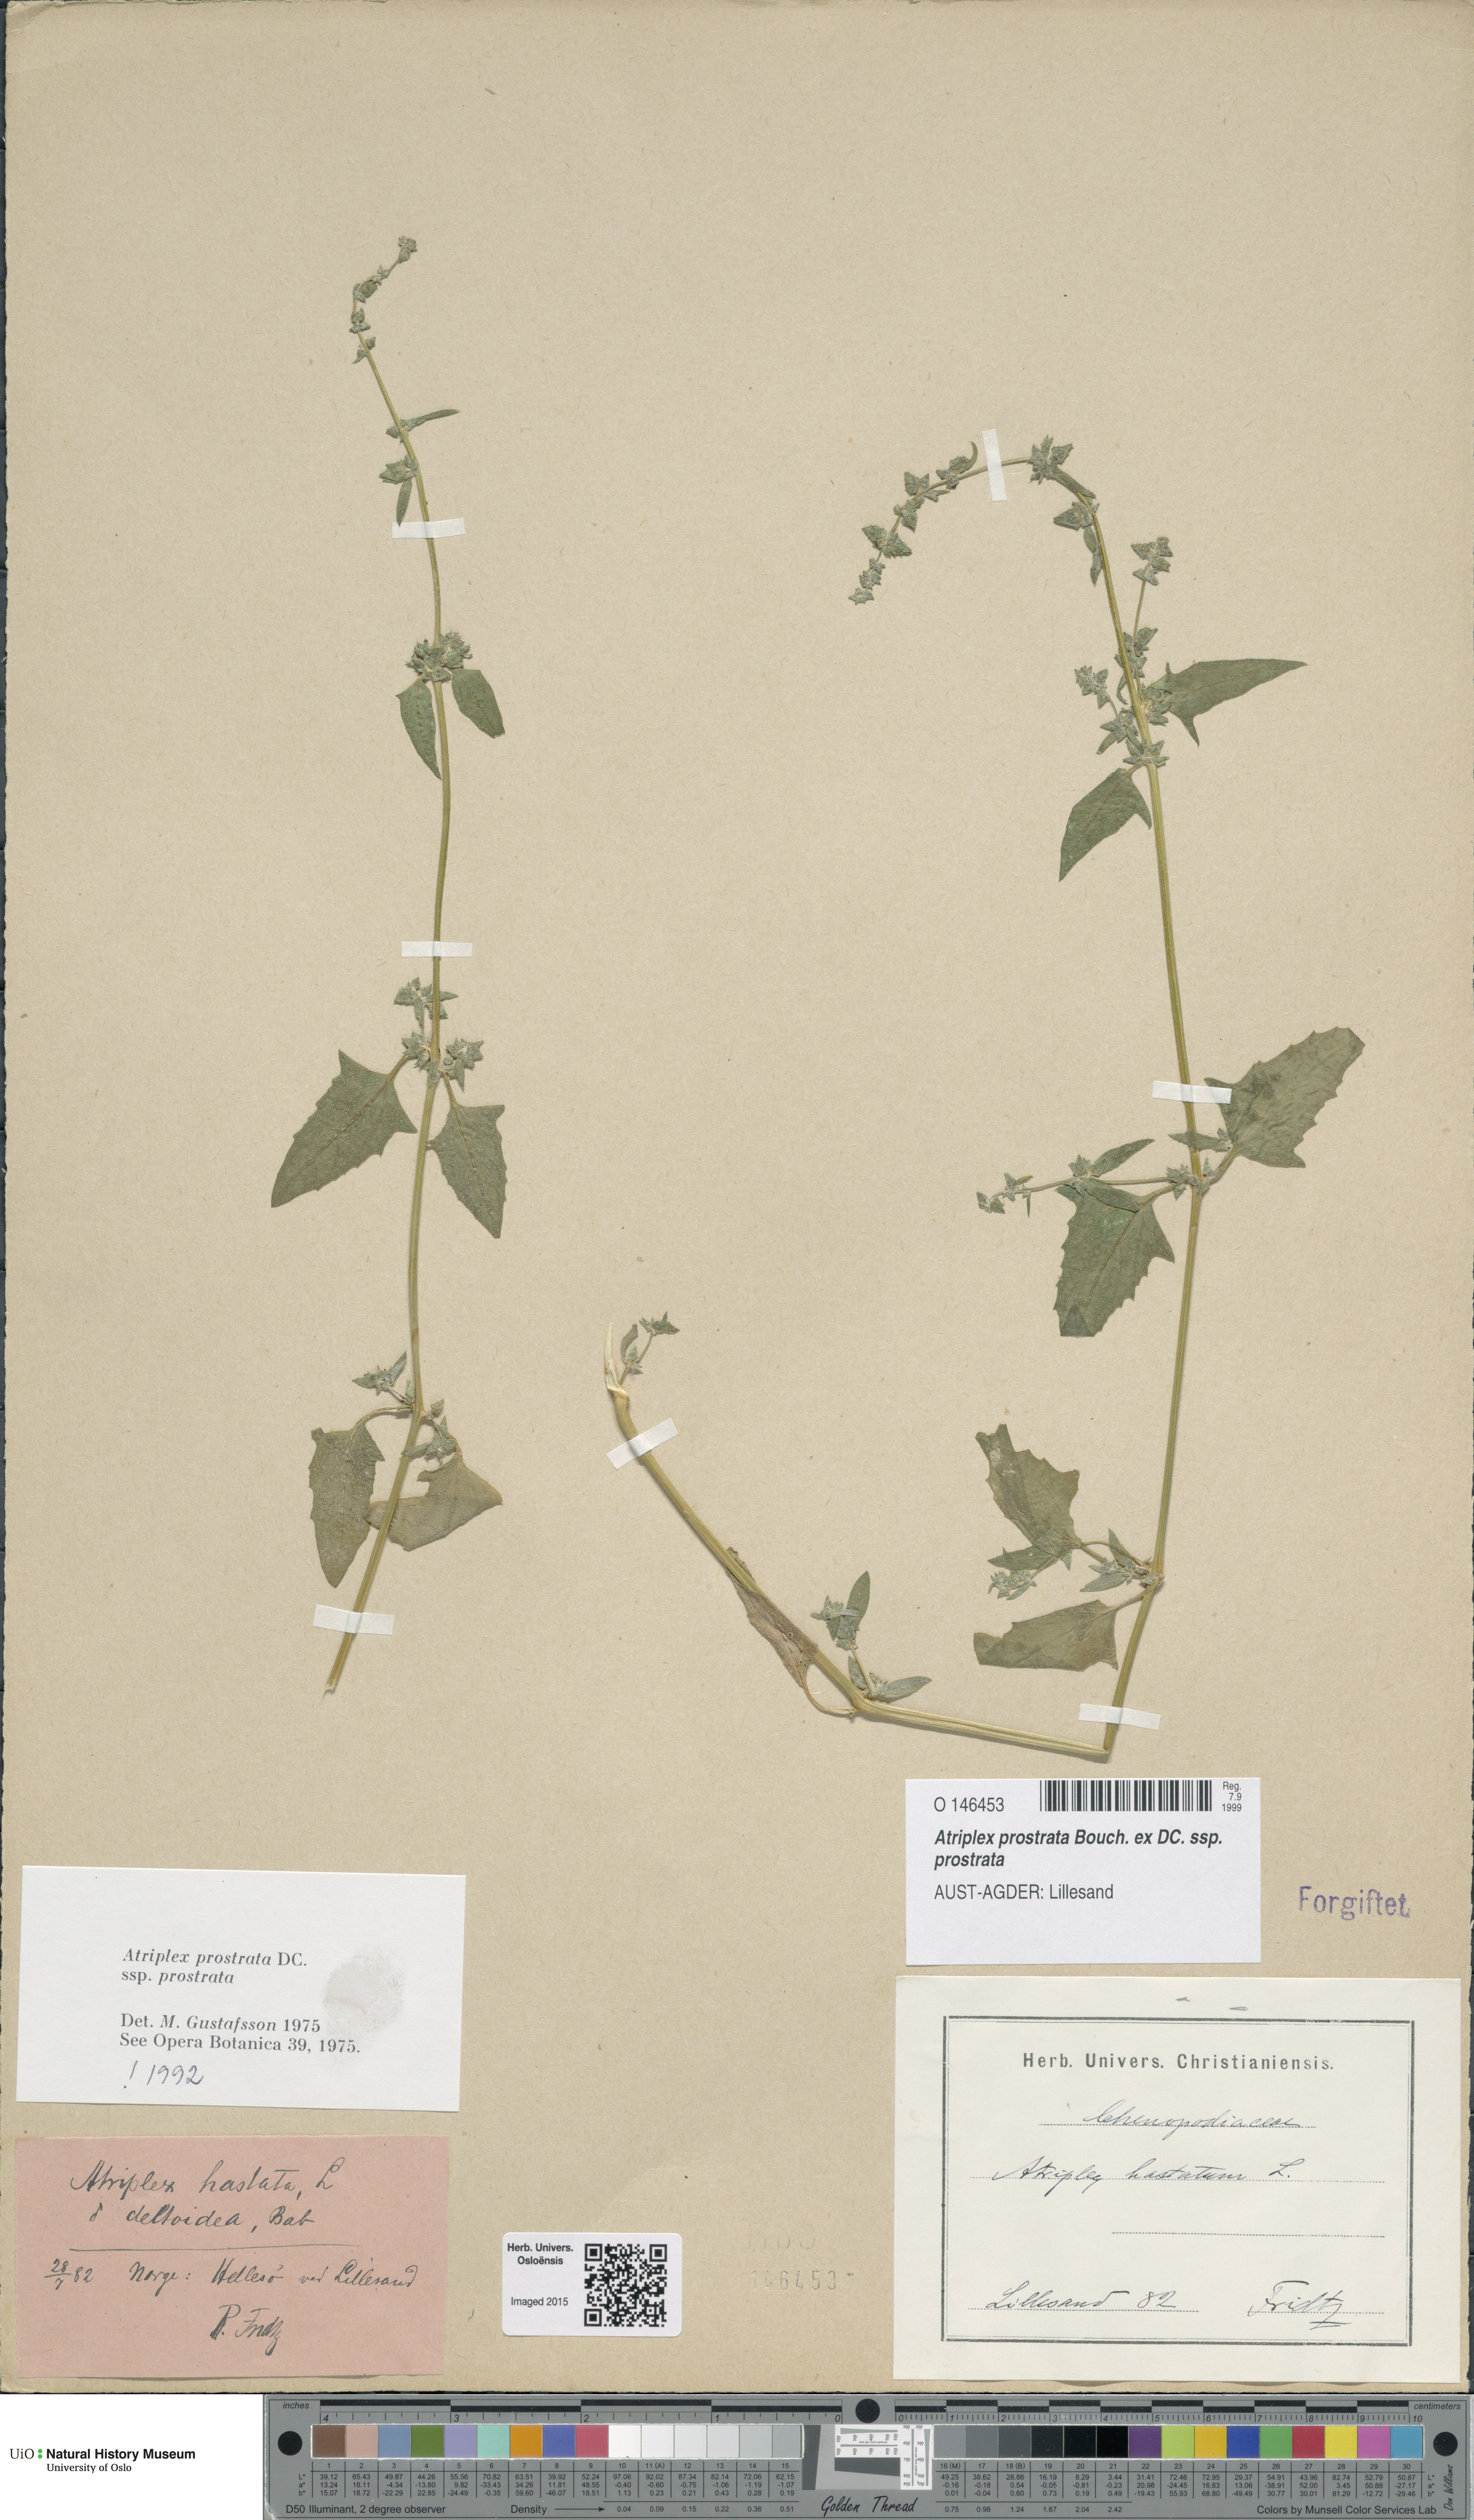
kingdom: Plantae
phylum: Tracheophyta
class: Magnoliopsida
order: Caryophyllales
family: Amaranthaceae
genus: Atriplex
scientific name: Atriplex prostrata
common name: Spear-leaved orache
